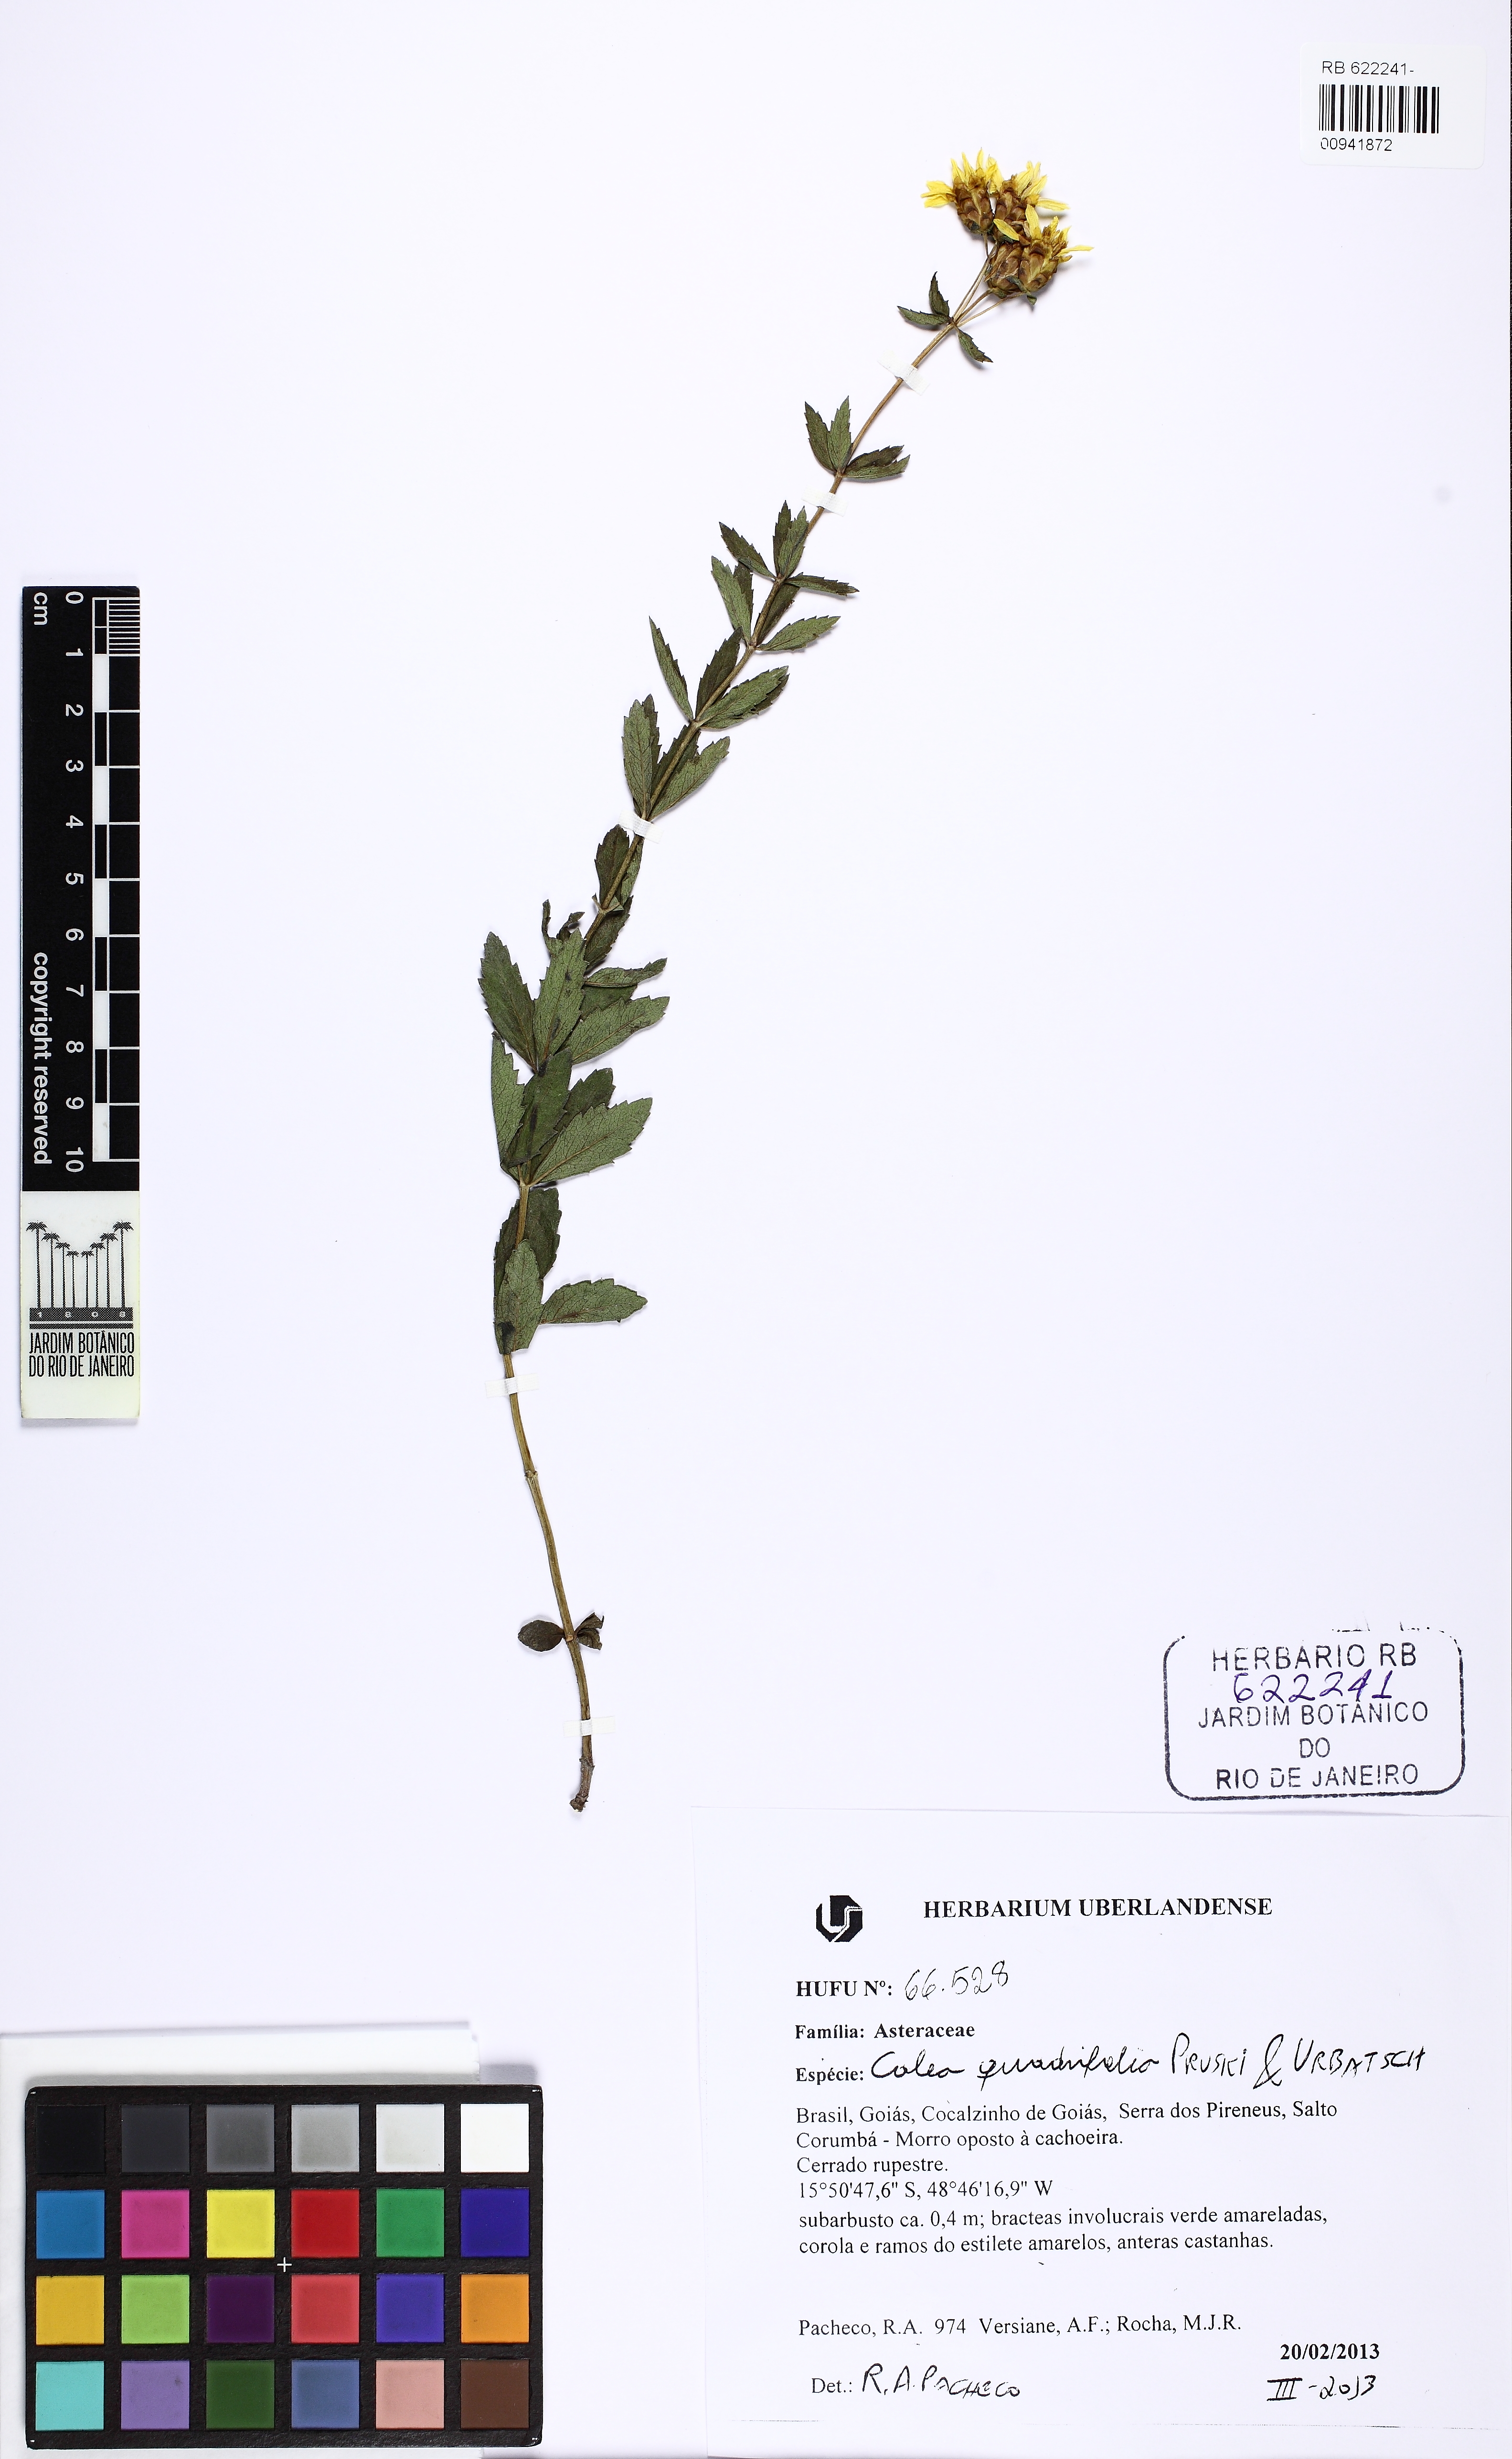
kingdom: Plantae
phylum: Tracheophyta
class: Magnoliopsida
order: Asterales
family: Asteraceae
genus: Calea
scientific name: Calea quadrifolia
